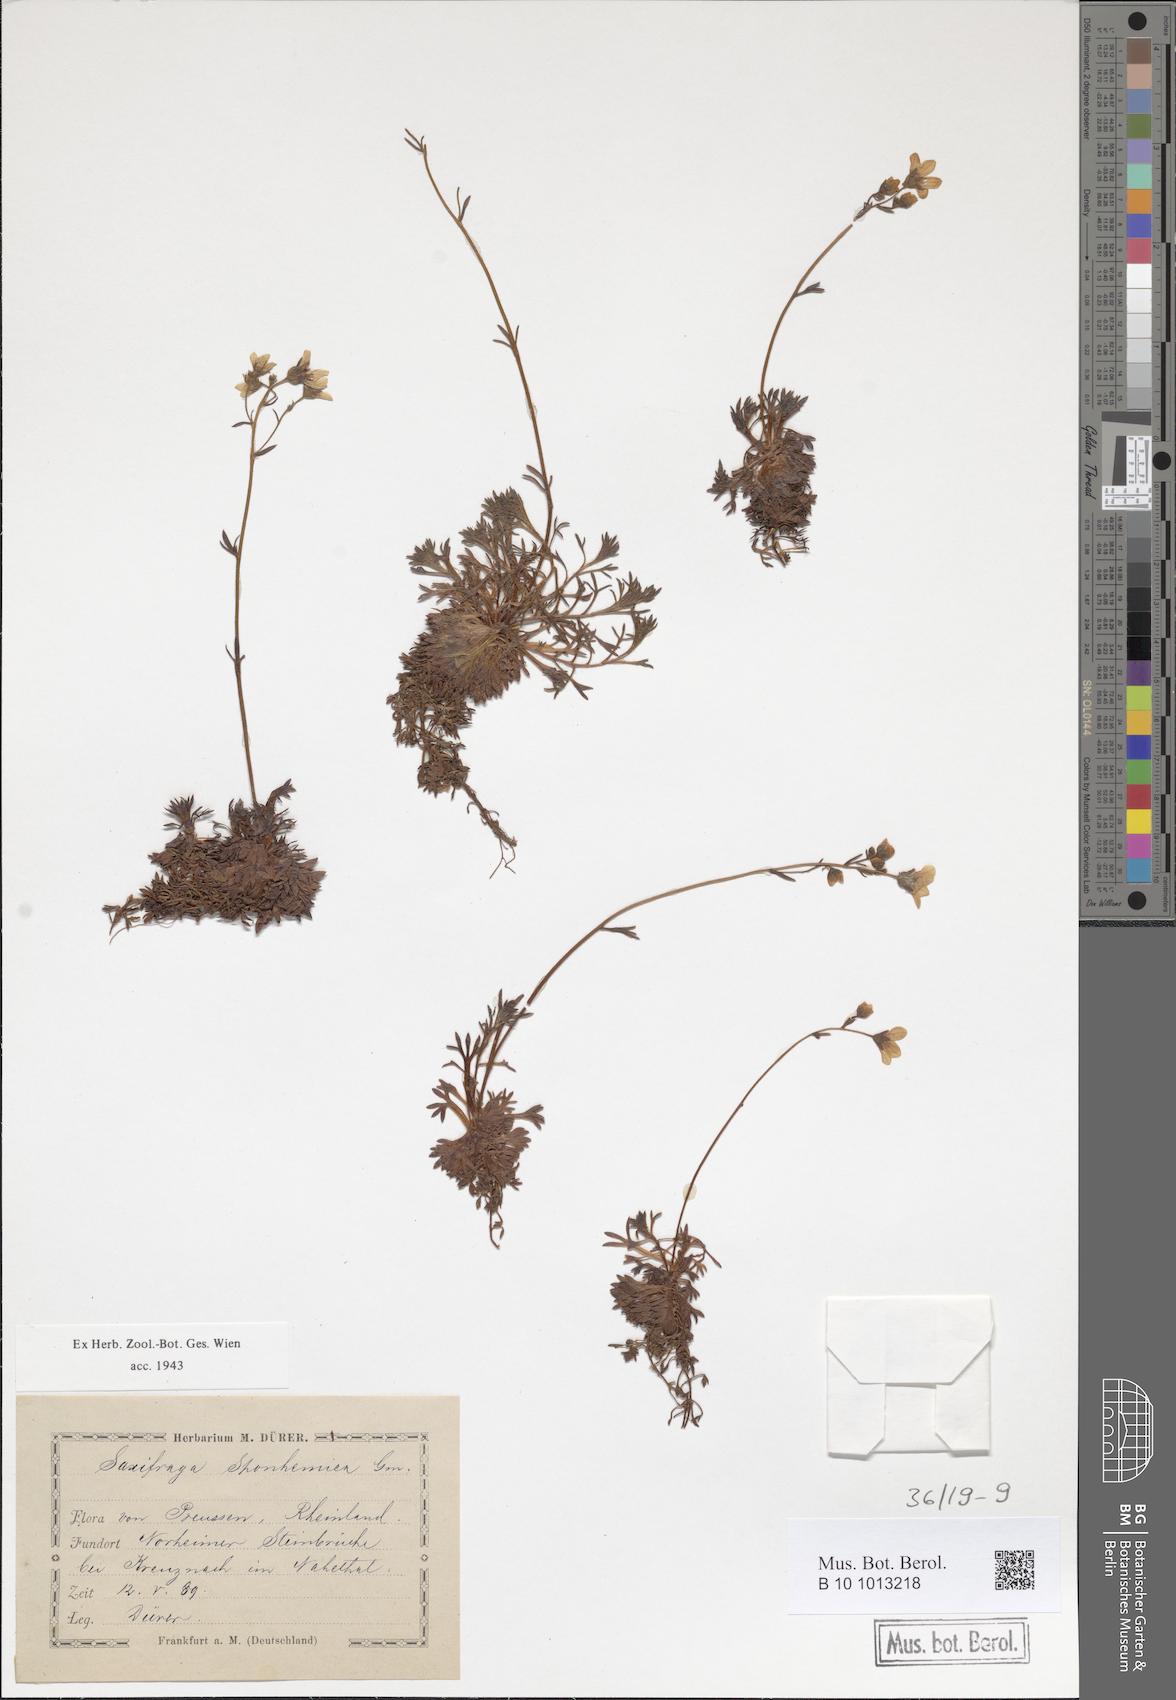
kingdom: Plantae
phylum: Tracheophyta
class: Magnoliopsida
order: Saxifragales
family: Saxifragaceae
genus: Saxifraga
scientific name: Saxifraga rosacea
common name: Irish saxifrage
